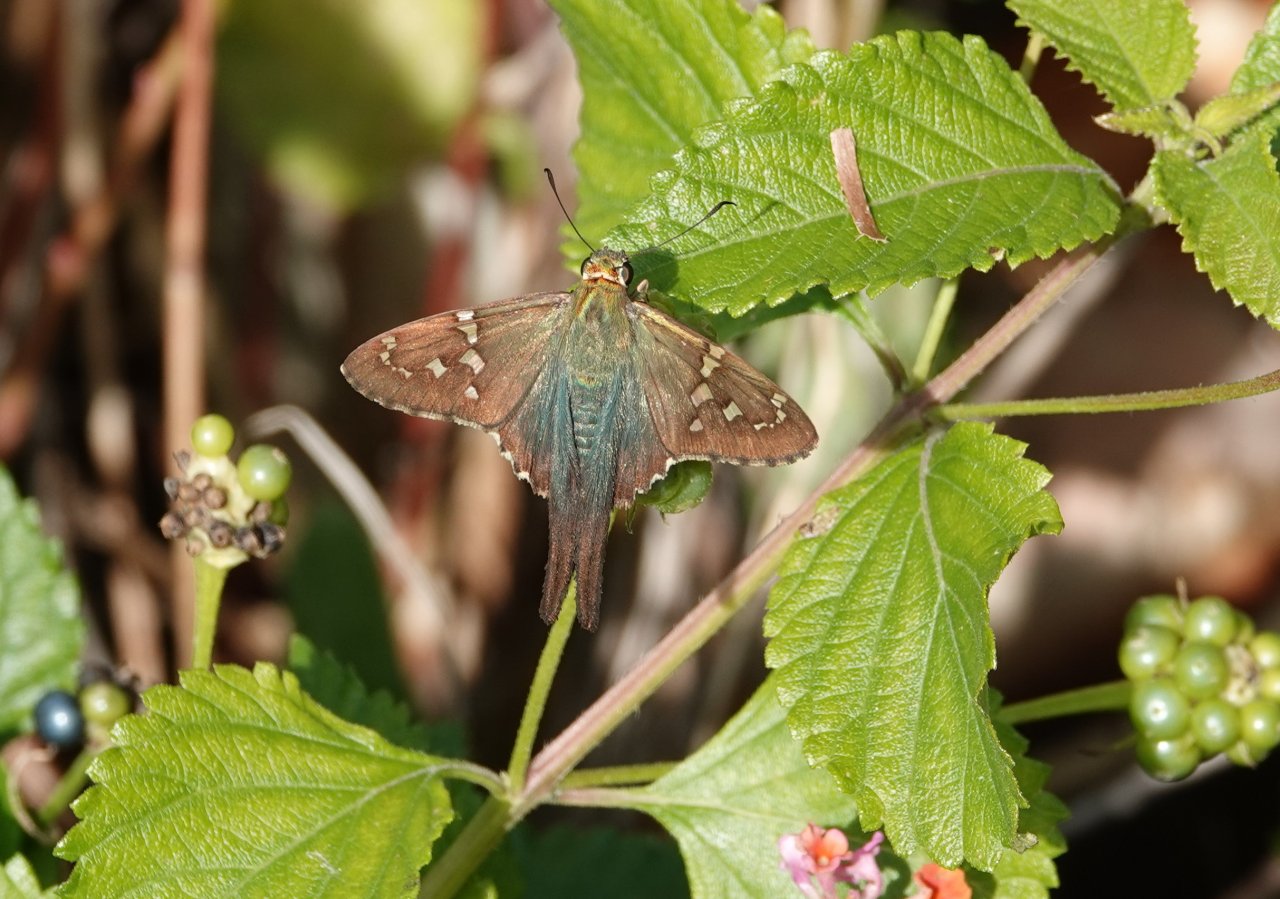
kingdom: Animalia
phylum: Arthropoda
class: Insecta
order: Lepidoptera
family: Hesperiidae
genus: Urbanus
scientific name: Urbanus proteus
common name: Long-tailed Skipper
